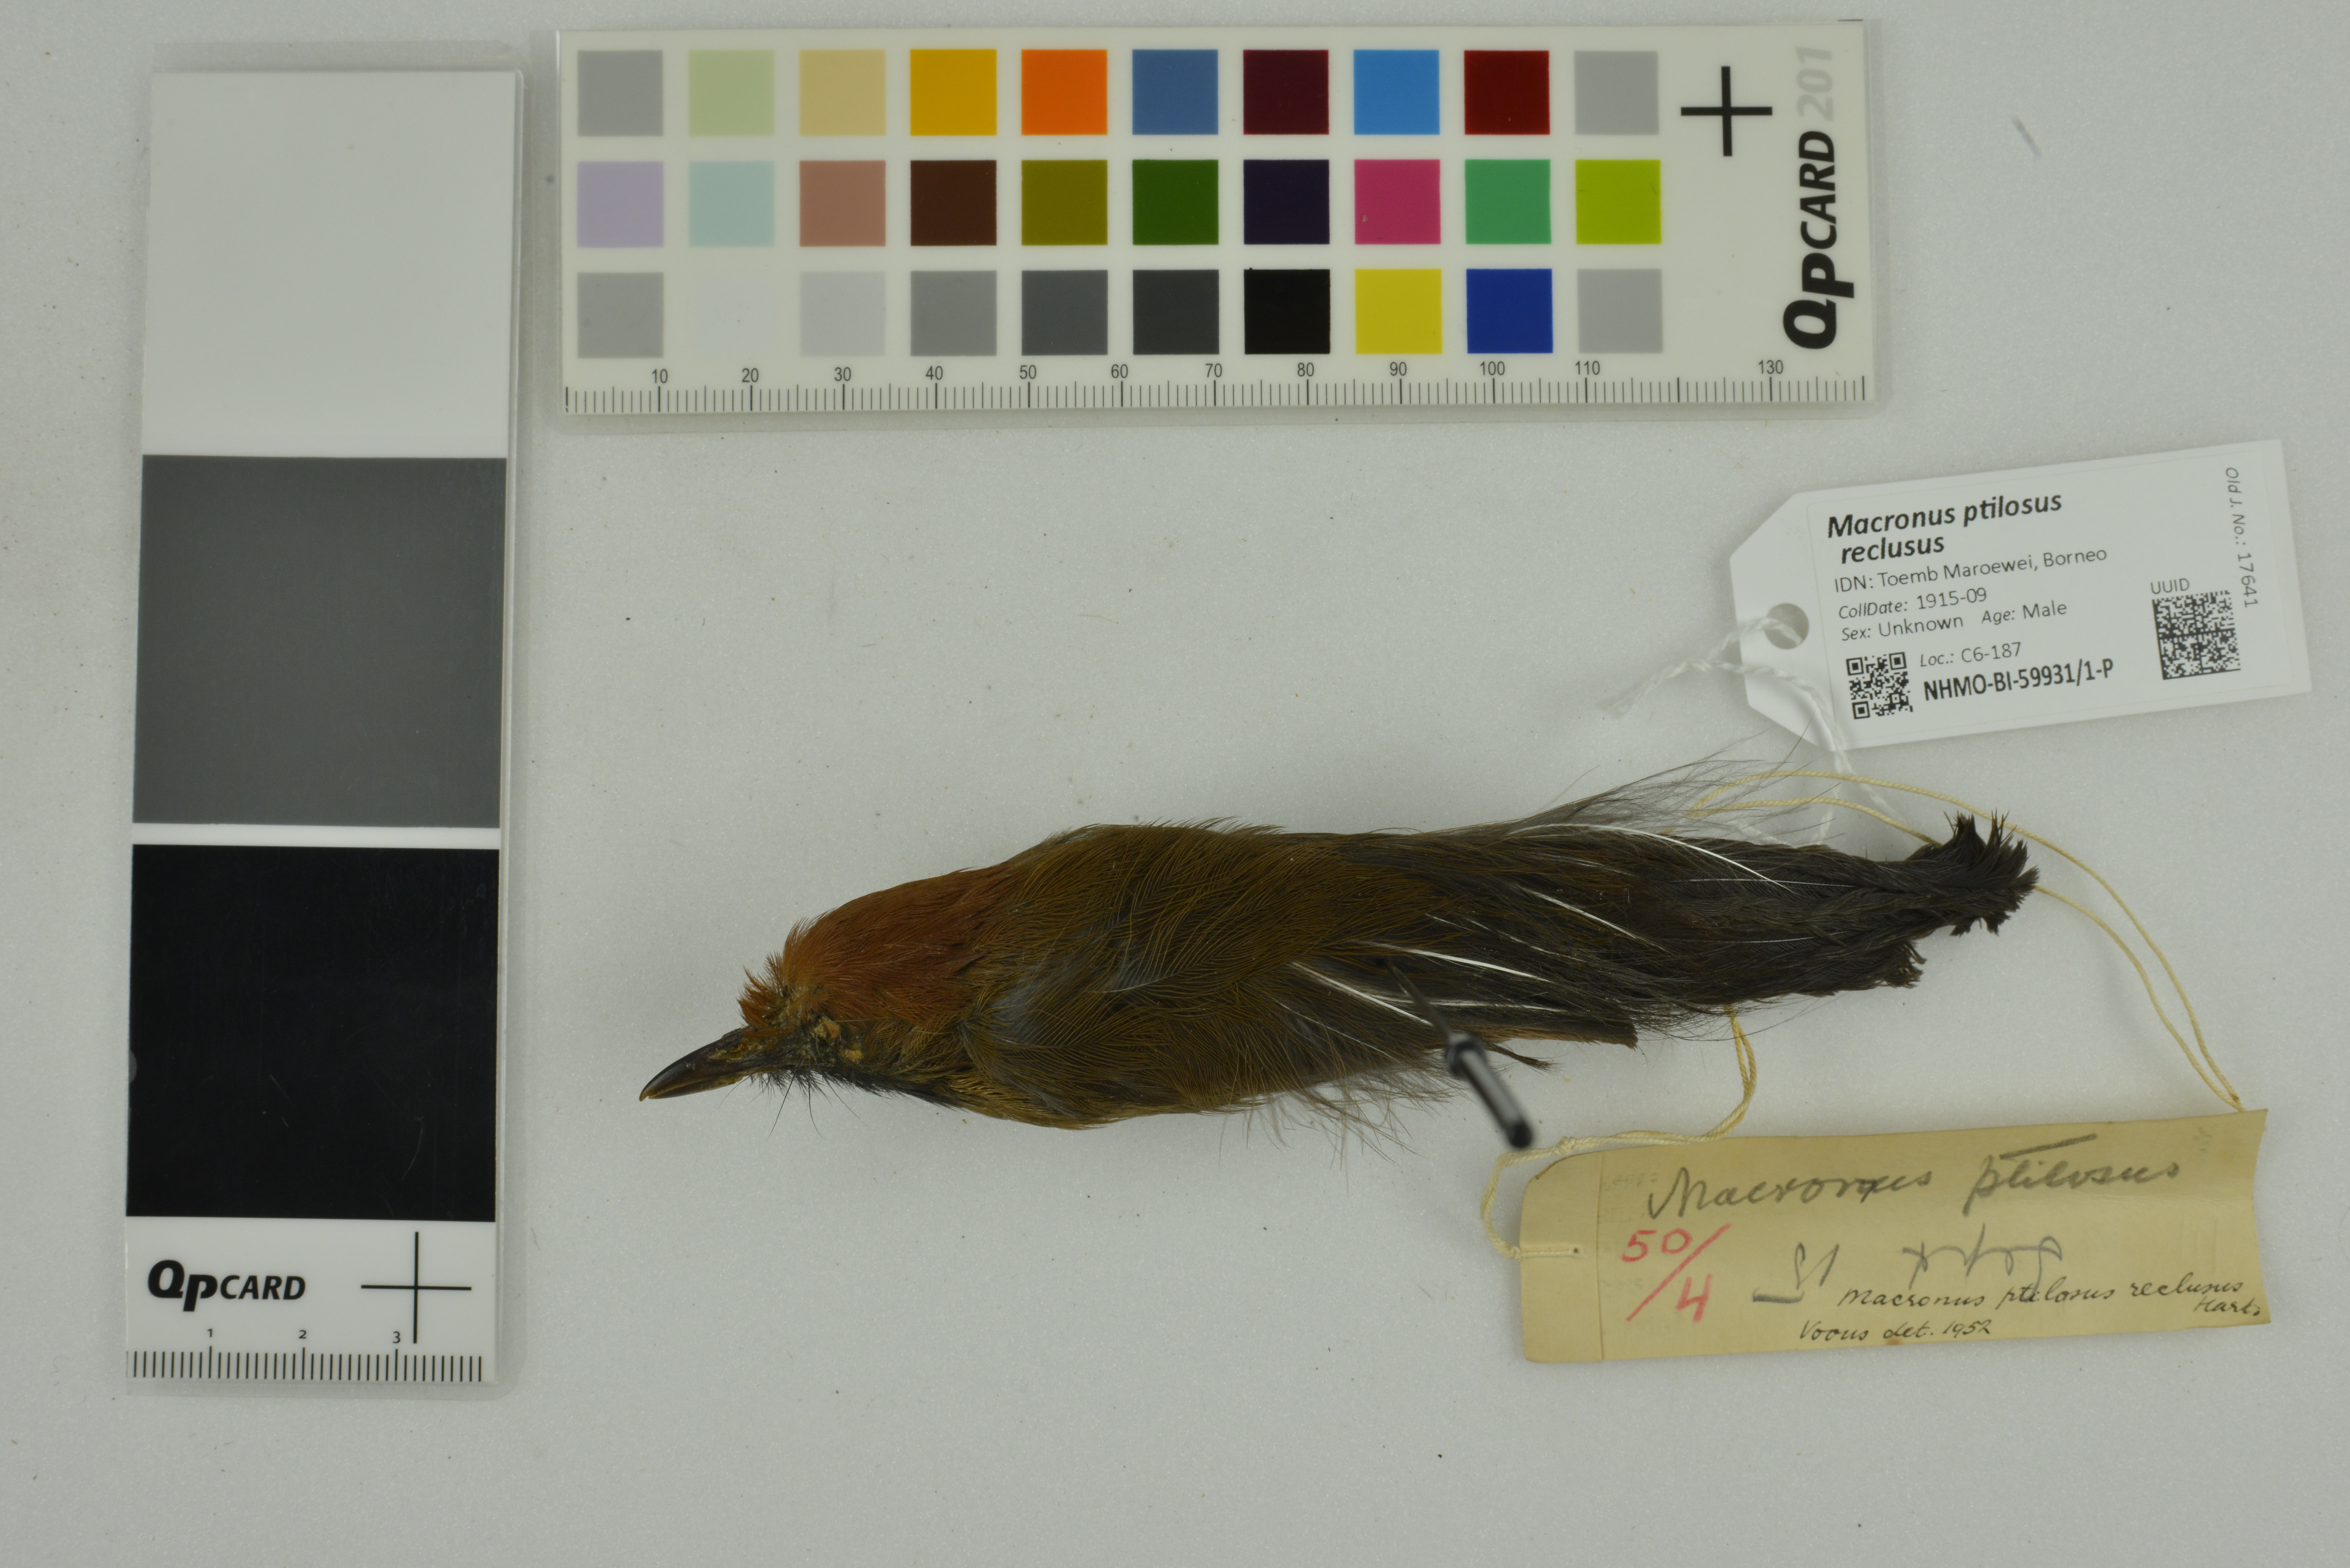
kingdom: Animalia
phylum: Chordata
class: Aves
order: Passeriformes
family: Timaliidae
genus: Macronus
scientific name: Macronus ptilosus
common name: Fluffy-backed tit-babbler
